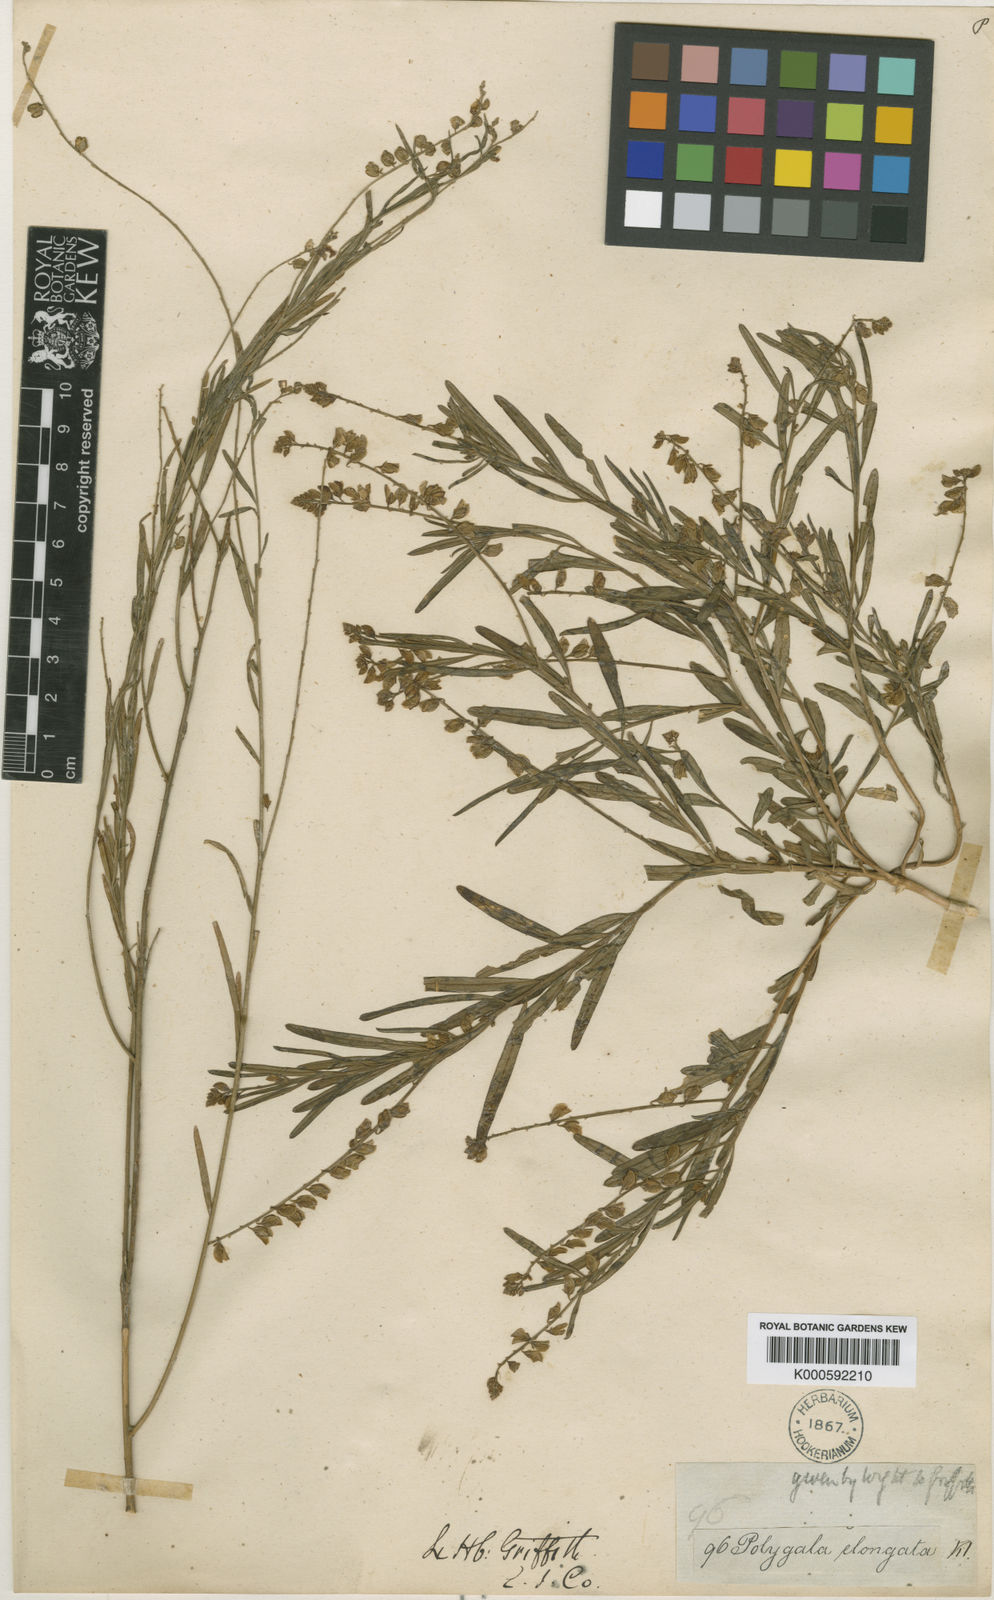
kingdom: Plantae
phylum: Tracheophyta
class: Magnoliopsida
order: Fabales
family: Polygalaceae
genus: Polygala
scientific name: Polygala
